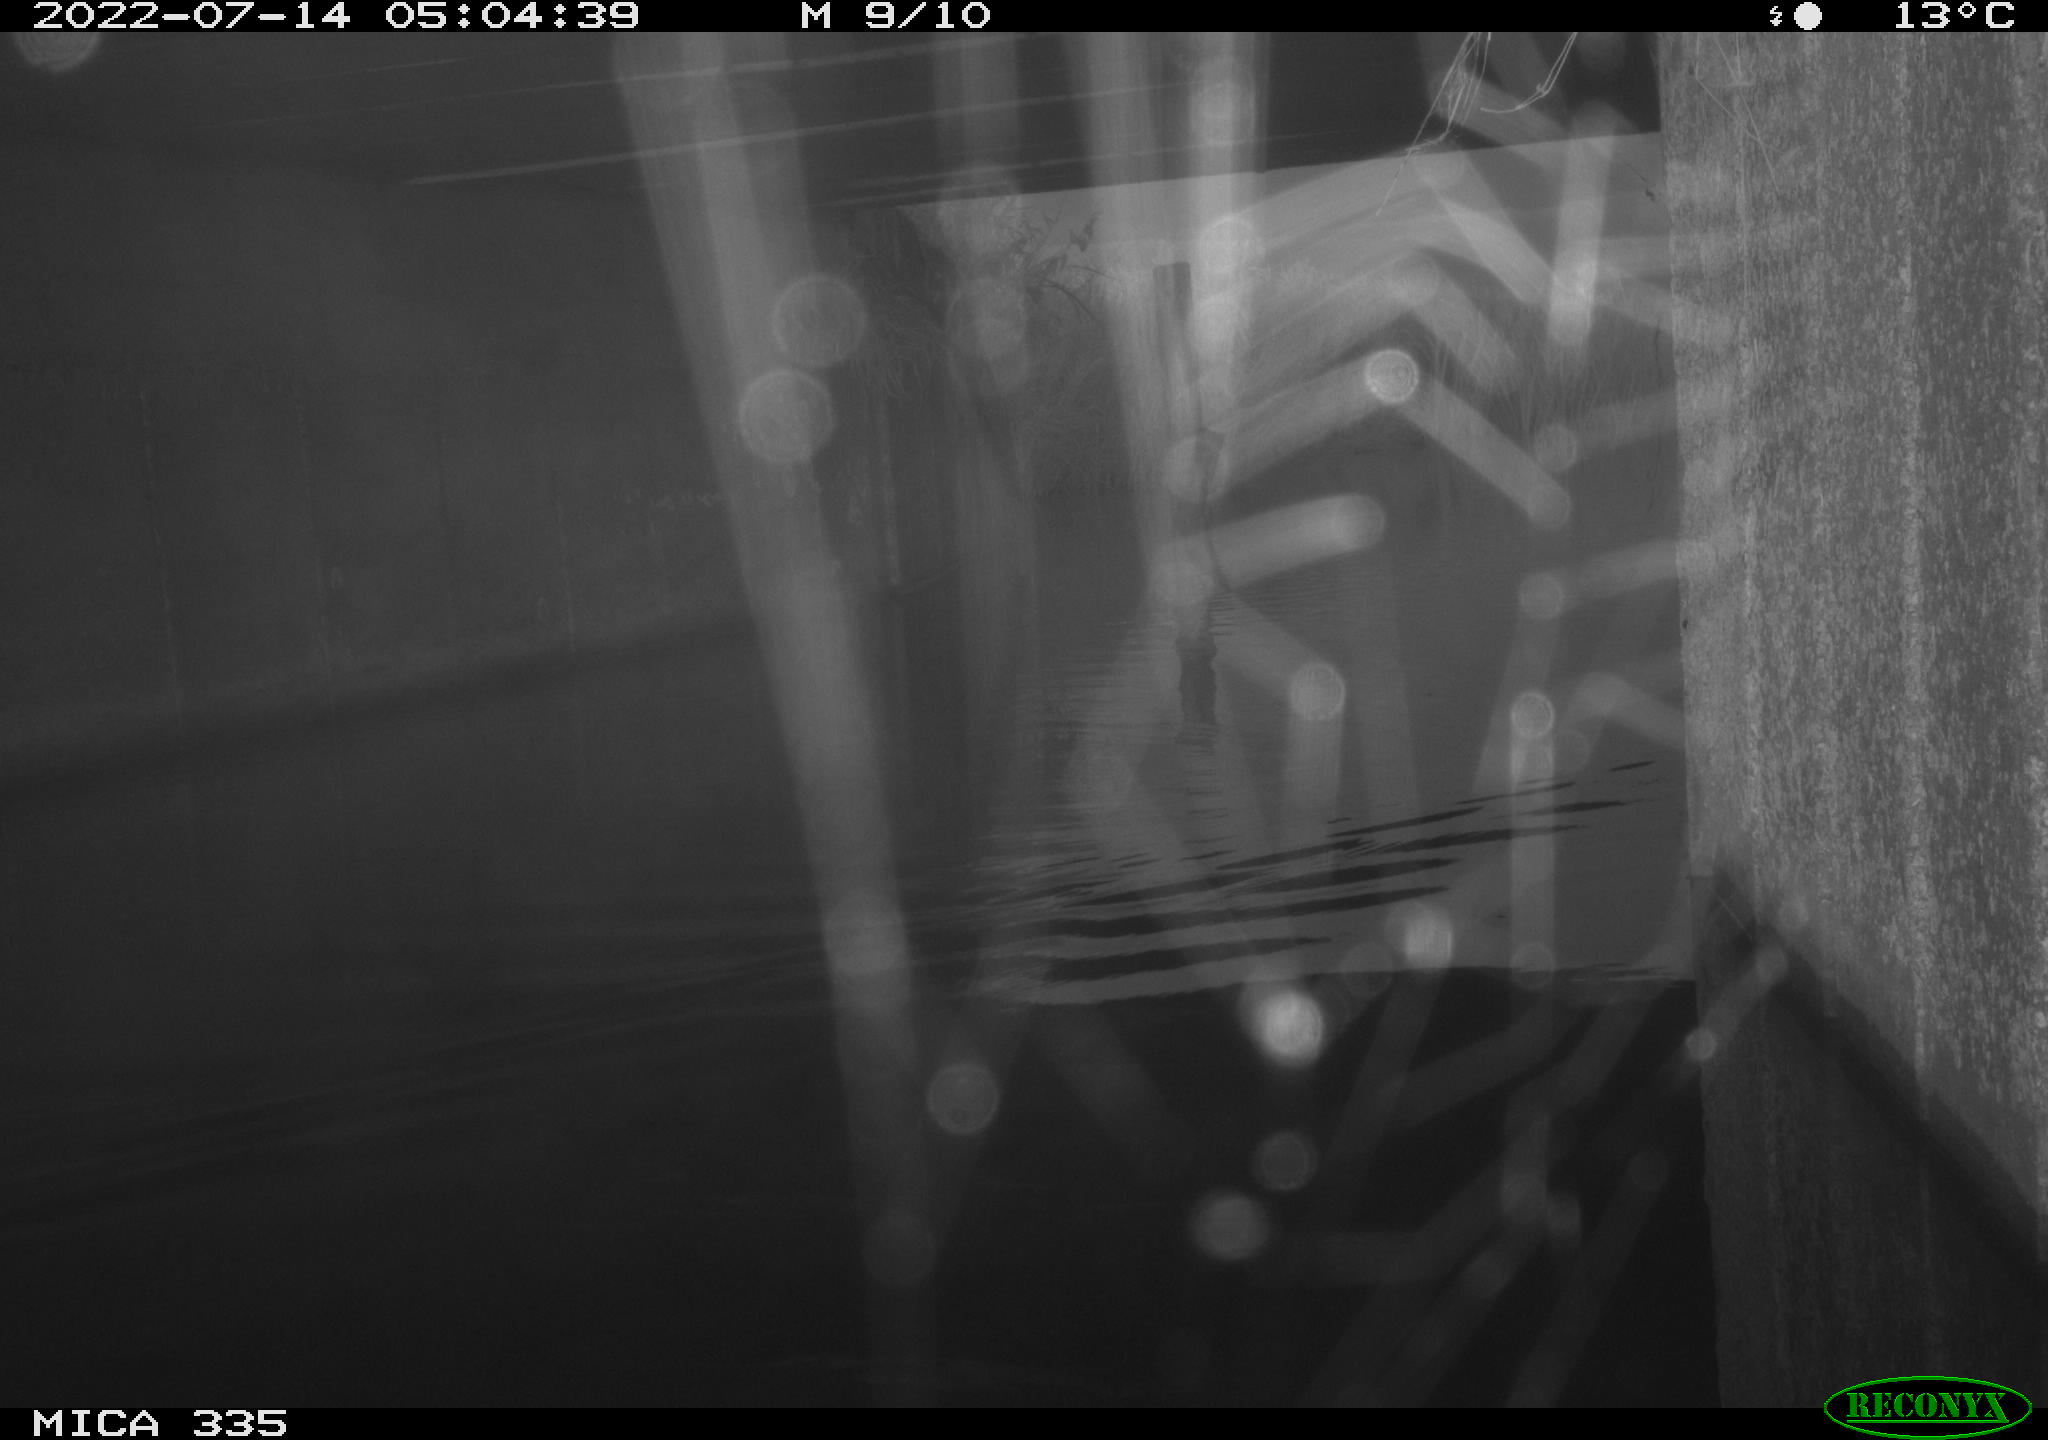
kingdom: Animalia
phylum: Chordata
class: Aves
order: Anseriformes
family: Anatidae
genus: Anas
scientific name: Anas platyrhynchos
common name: Mallard
